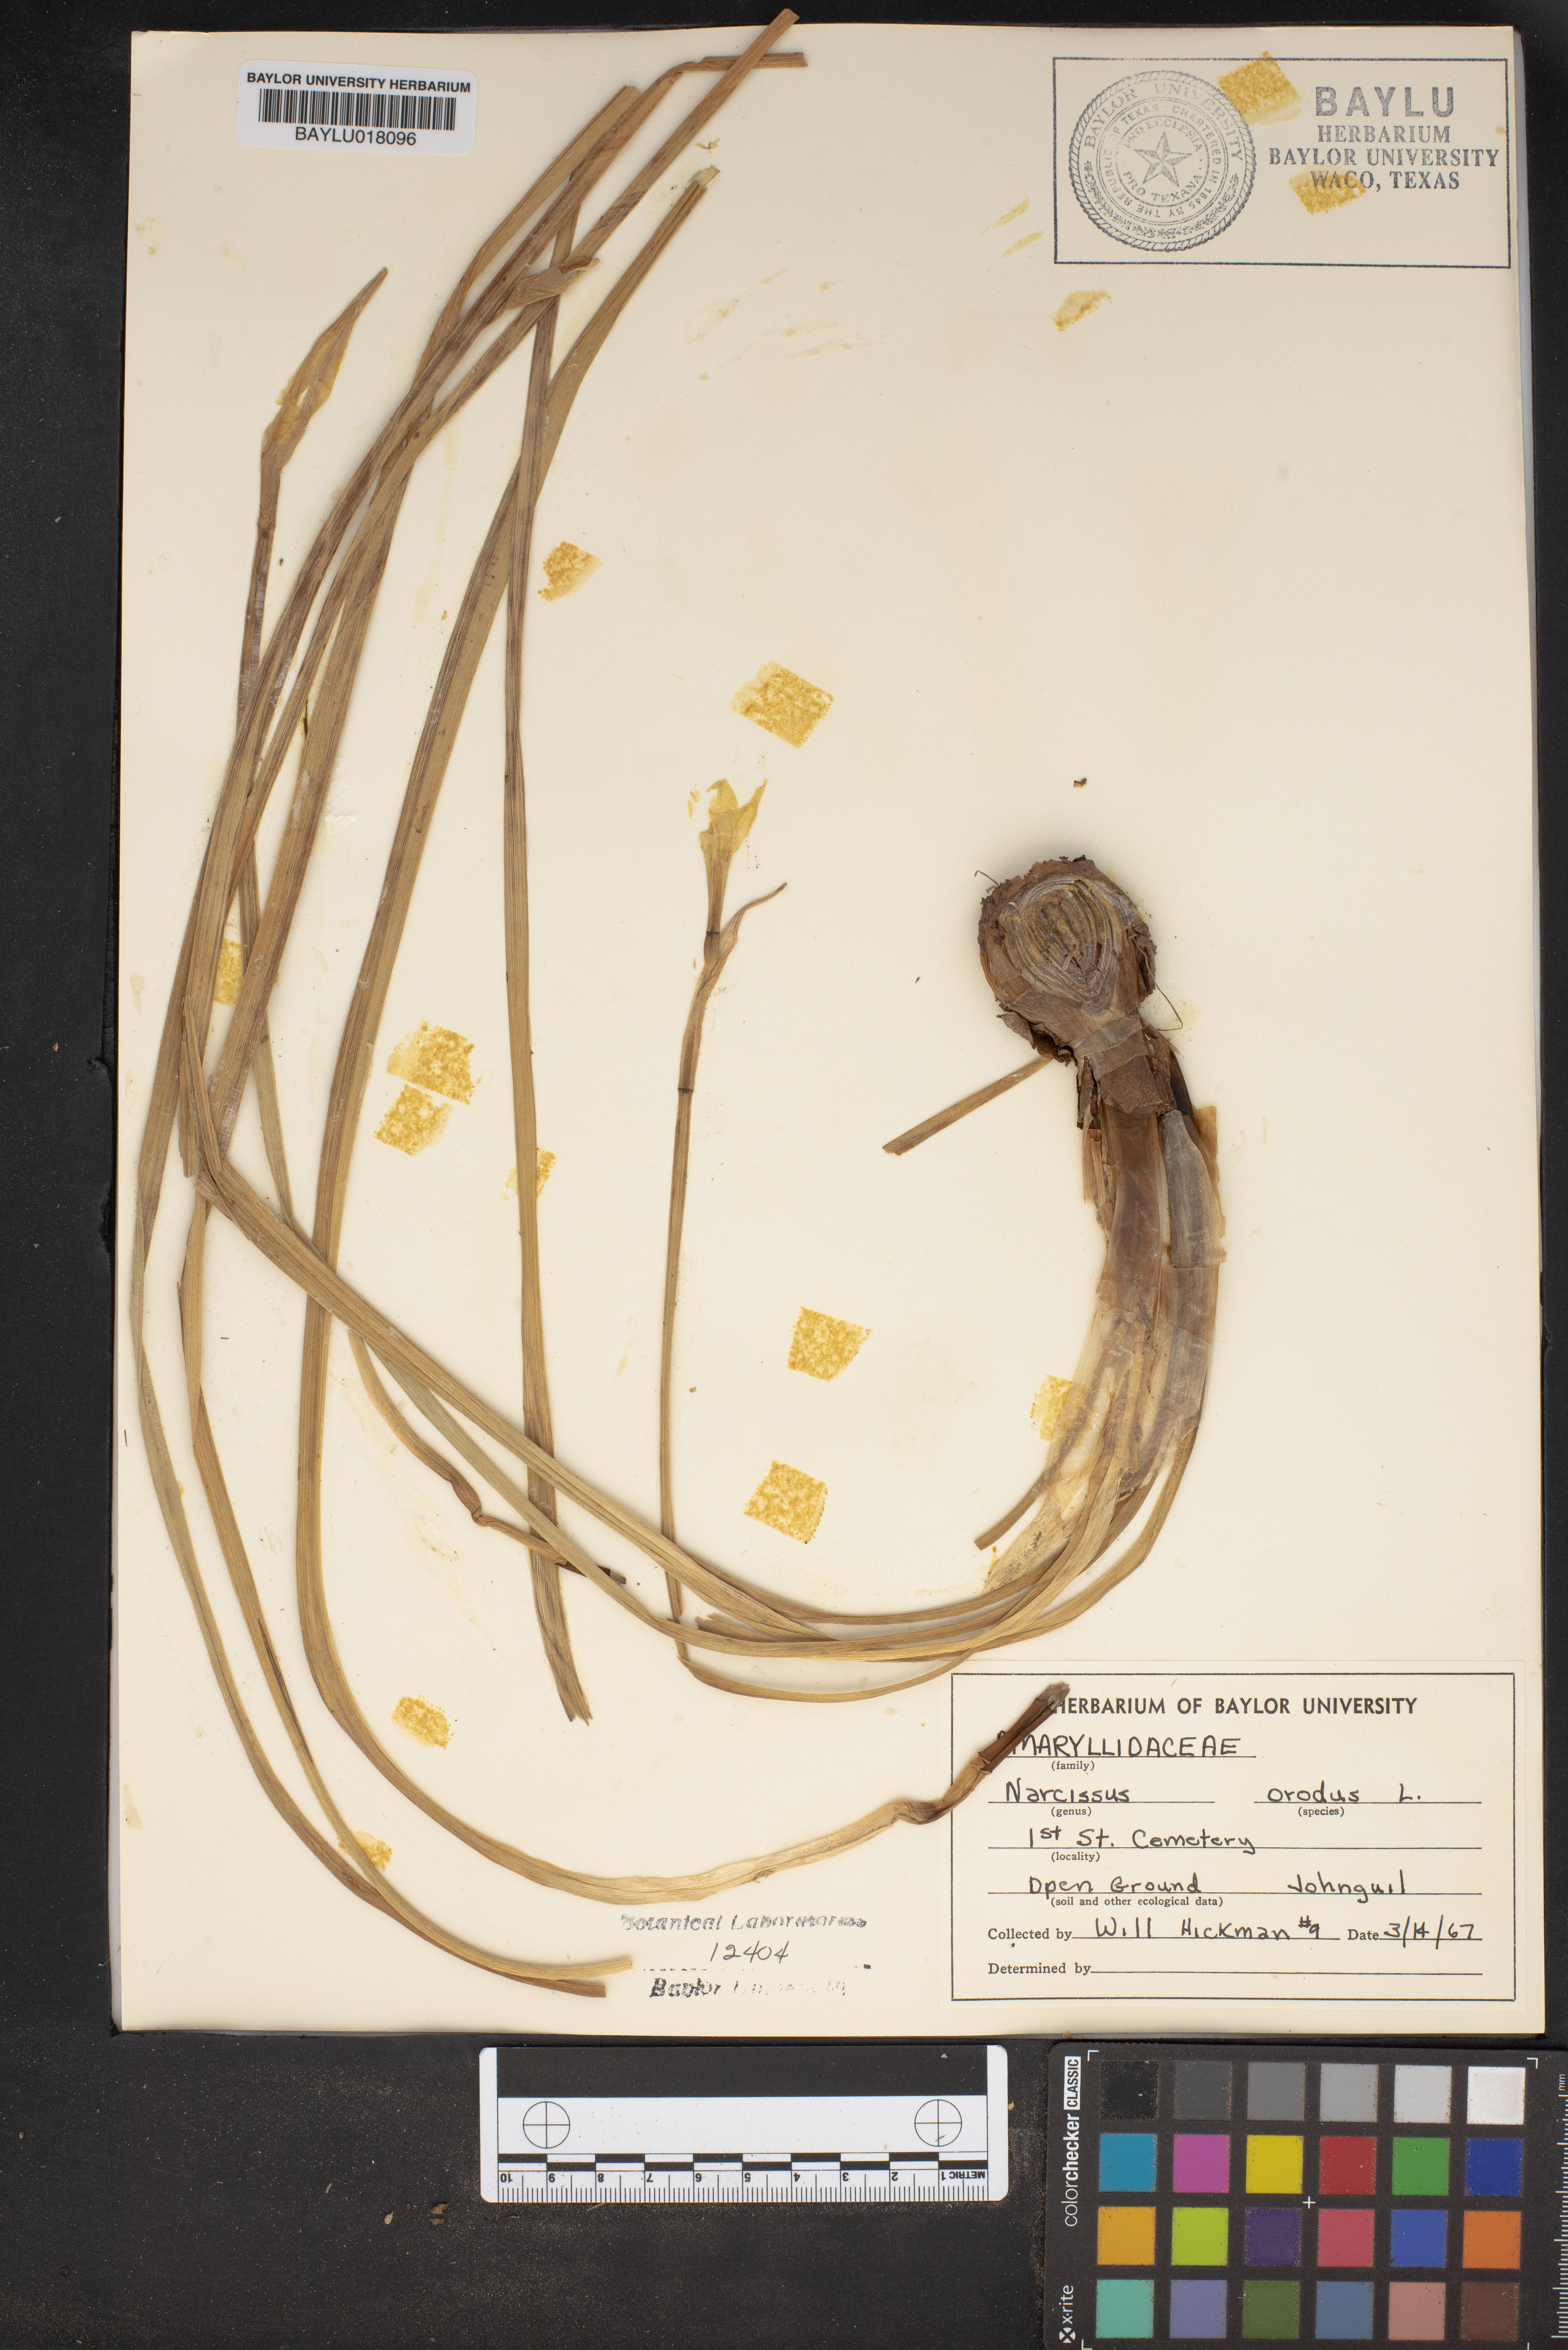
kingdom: Plantae
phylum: Tracheophyta
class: Liliopsida
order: Asparagales
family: Amaryllidaceae
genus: Narcissus
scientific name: Narcissus odorus
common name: Campernelle jonquil
